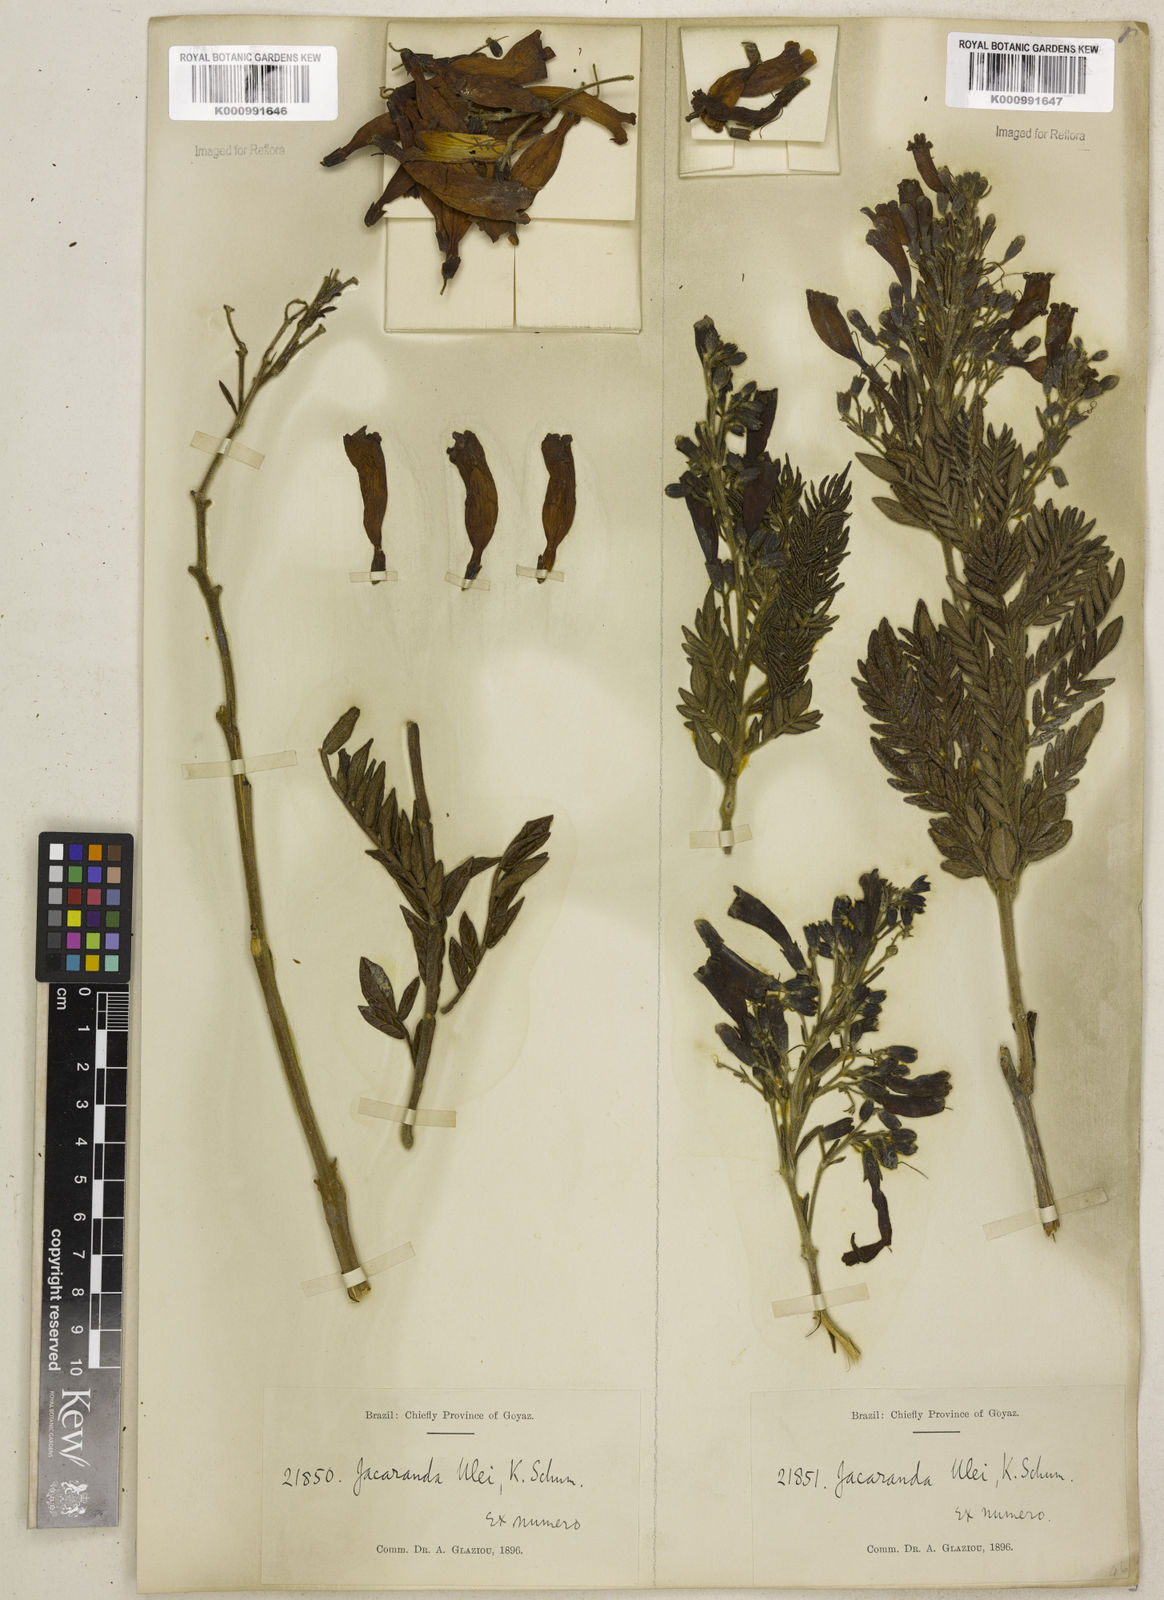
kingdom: Plantae
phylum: Tracheophyta
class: Magnoliopsida
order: Lamiales
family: Bignoniaceae
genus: Jacaranda
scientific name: Jacaranda ulei
